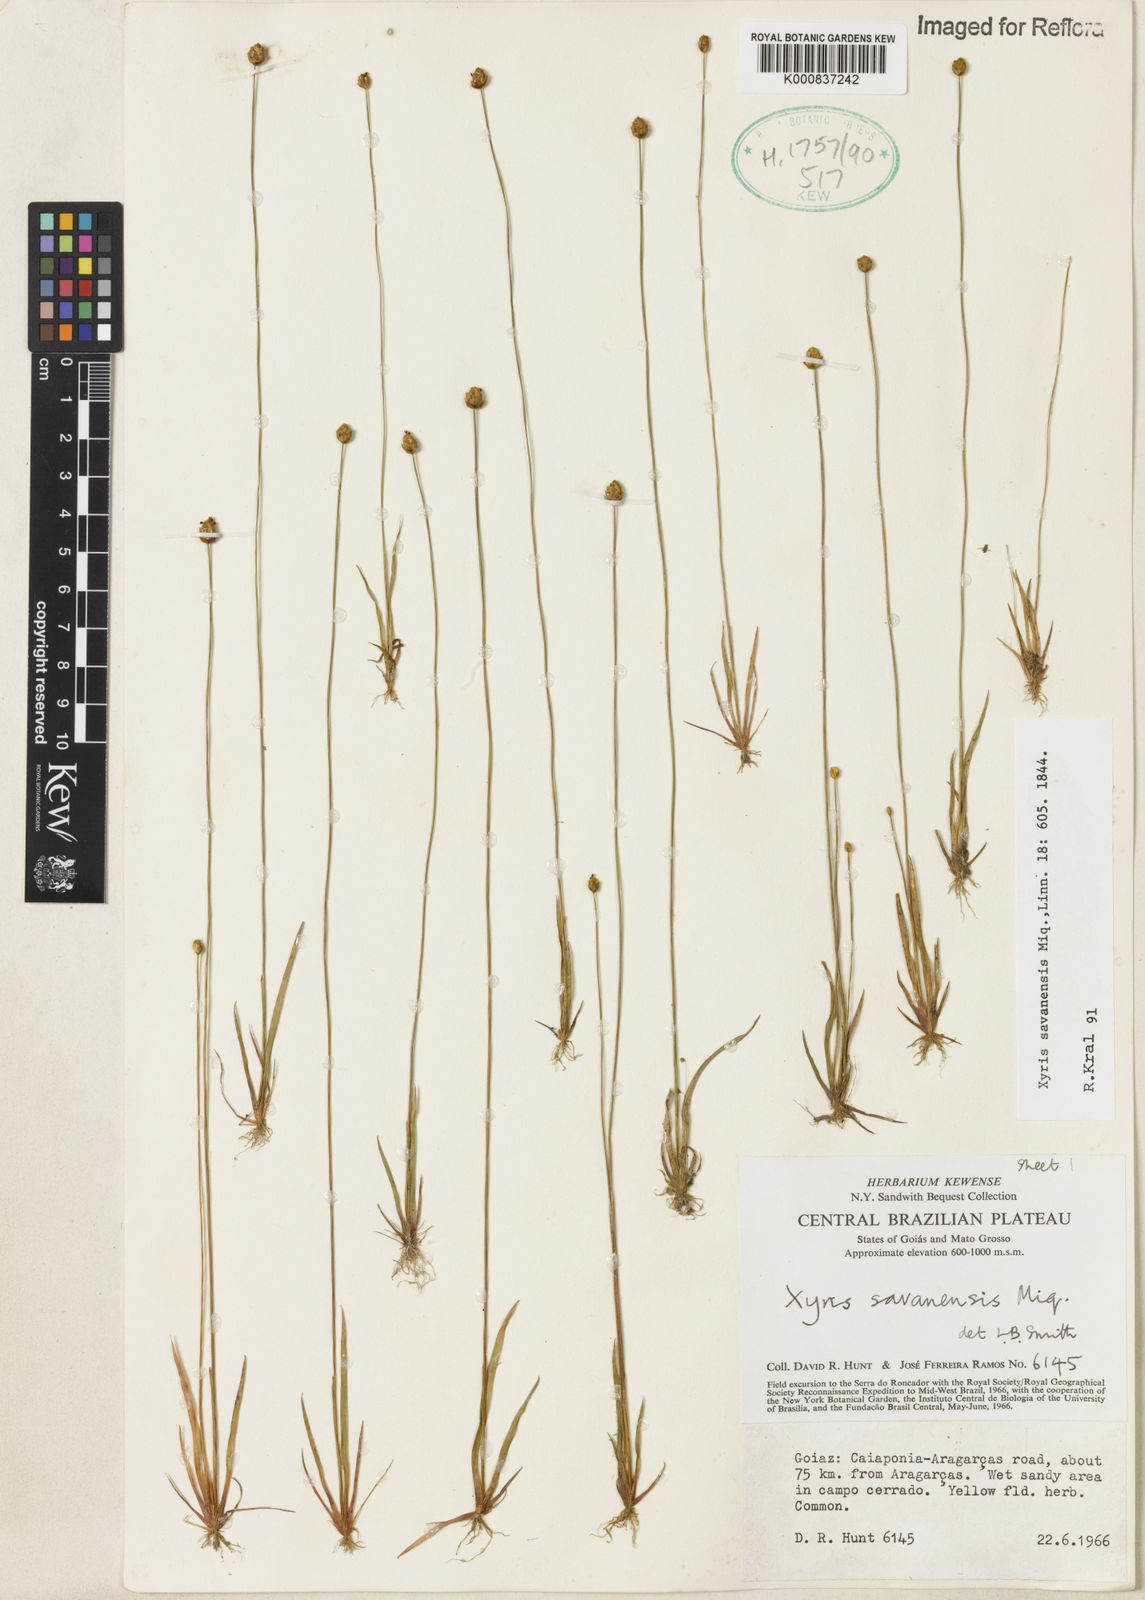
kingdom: Plantae
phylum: Tracheophyta
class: Liliopsida
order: Poales
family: Xyridaceae
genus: Xyris
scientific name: Xyris savanensis
